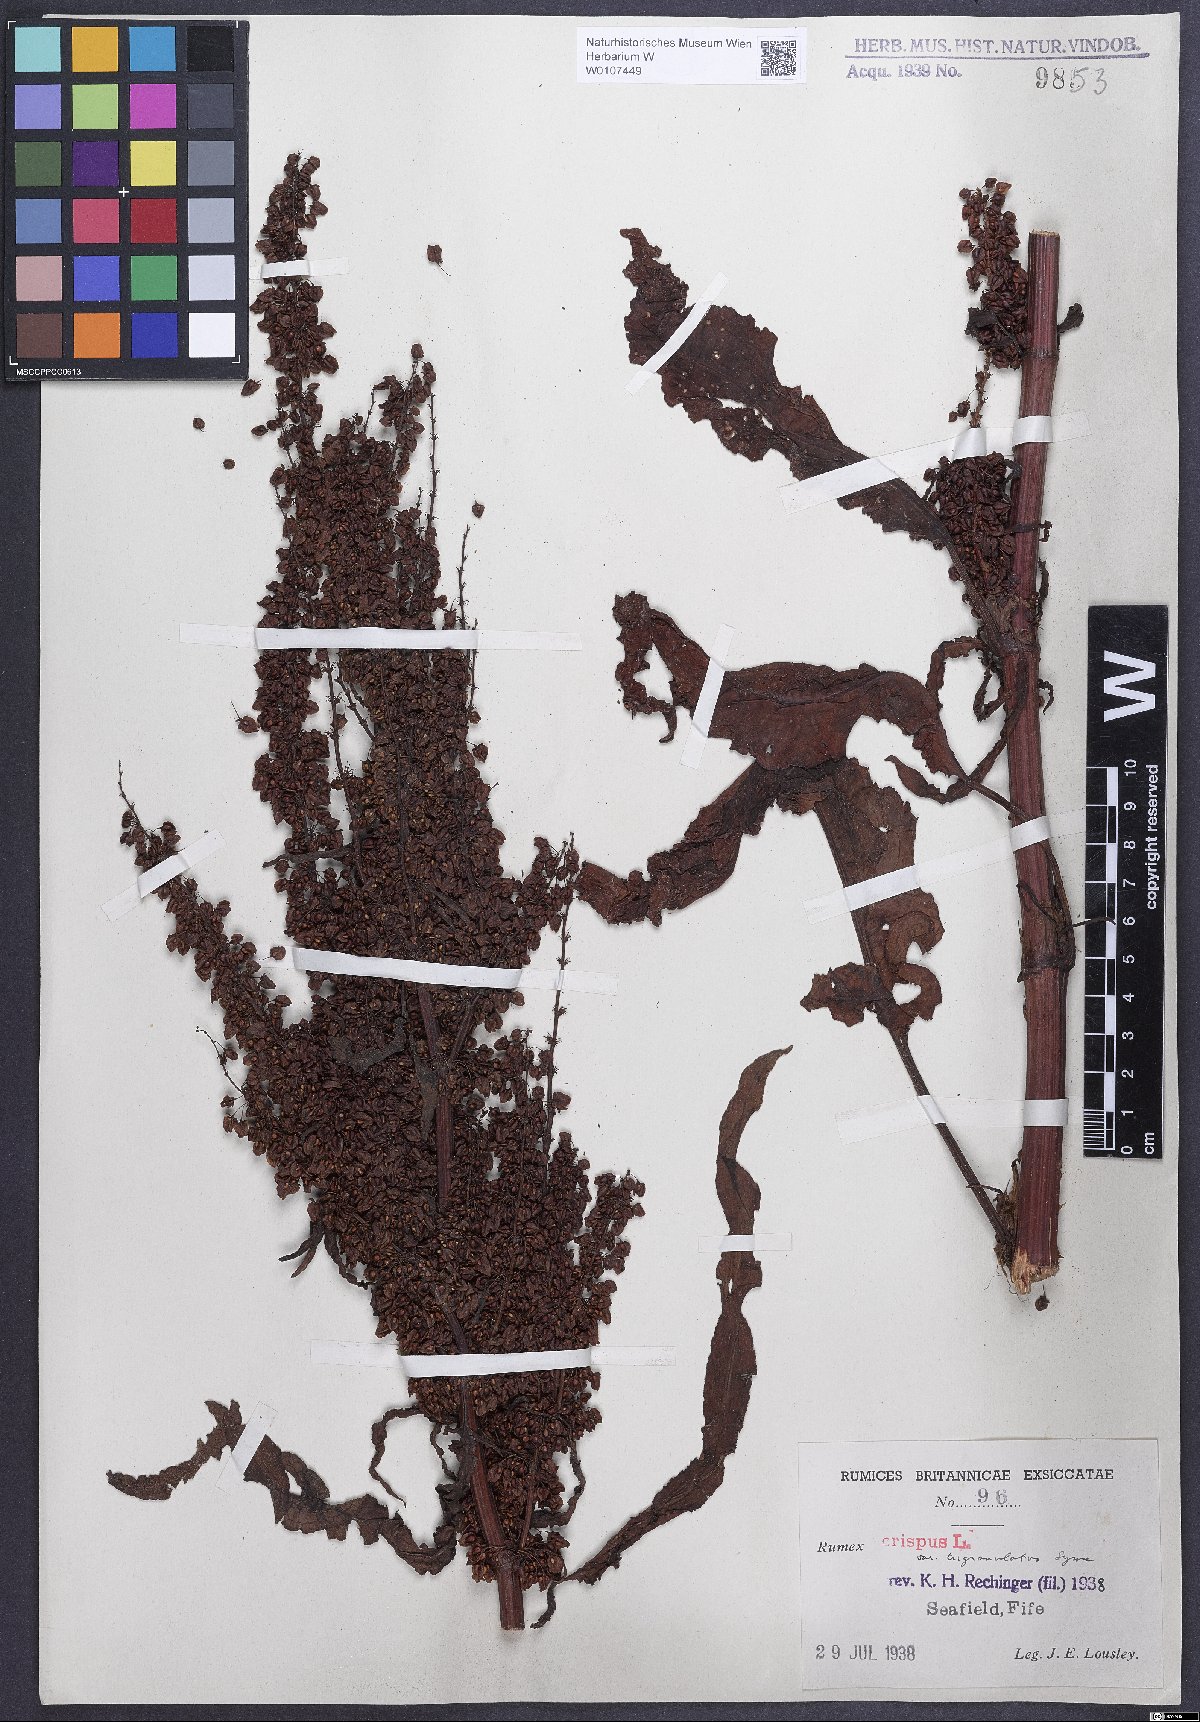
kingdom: Plantae
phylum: Tracheophyta
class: Magnoliopsida
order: Caryophyllales
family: Polygonaceae
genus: Rumex
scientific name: Rumex crispus
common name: Curled dock
